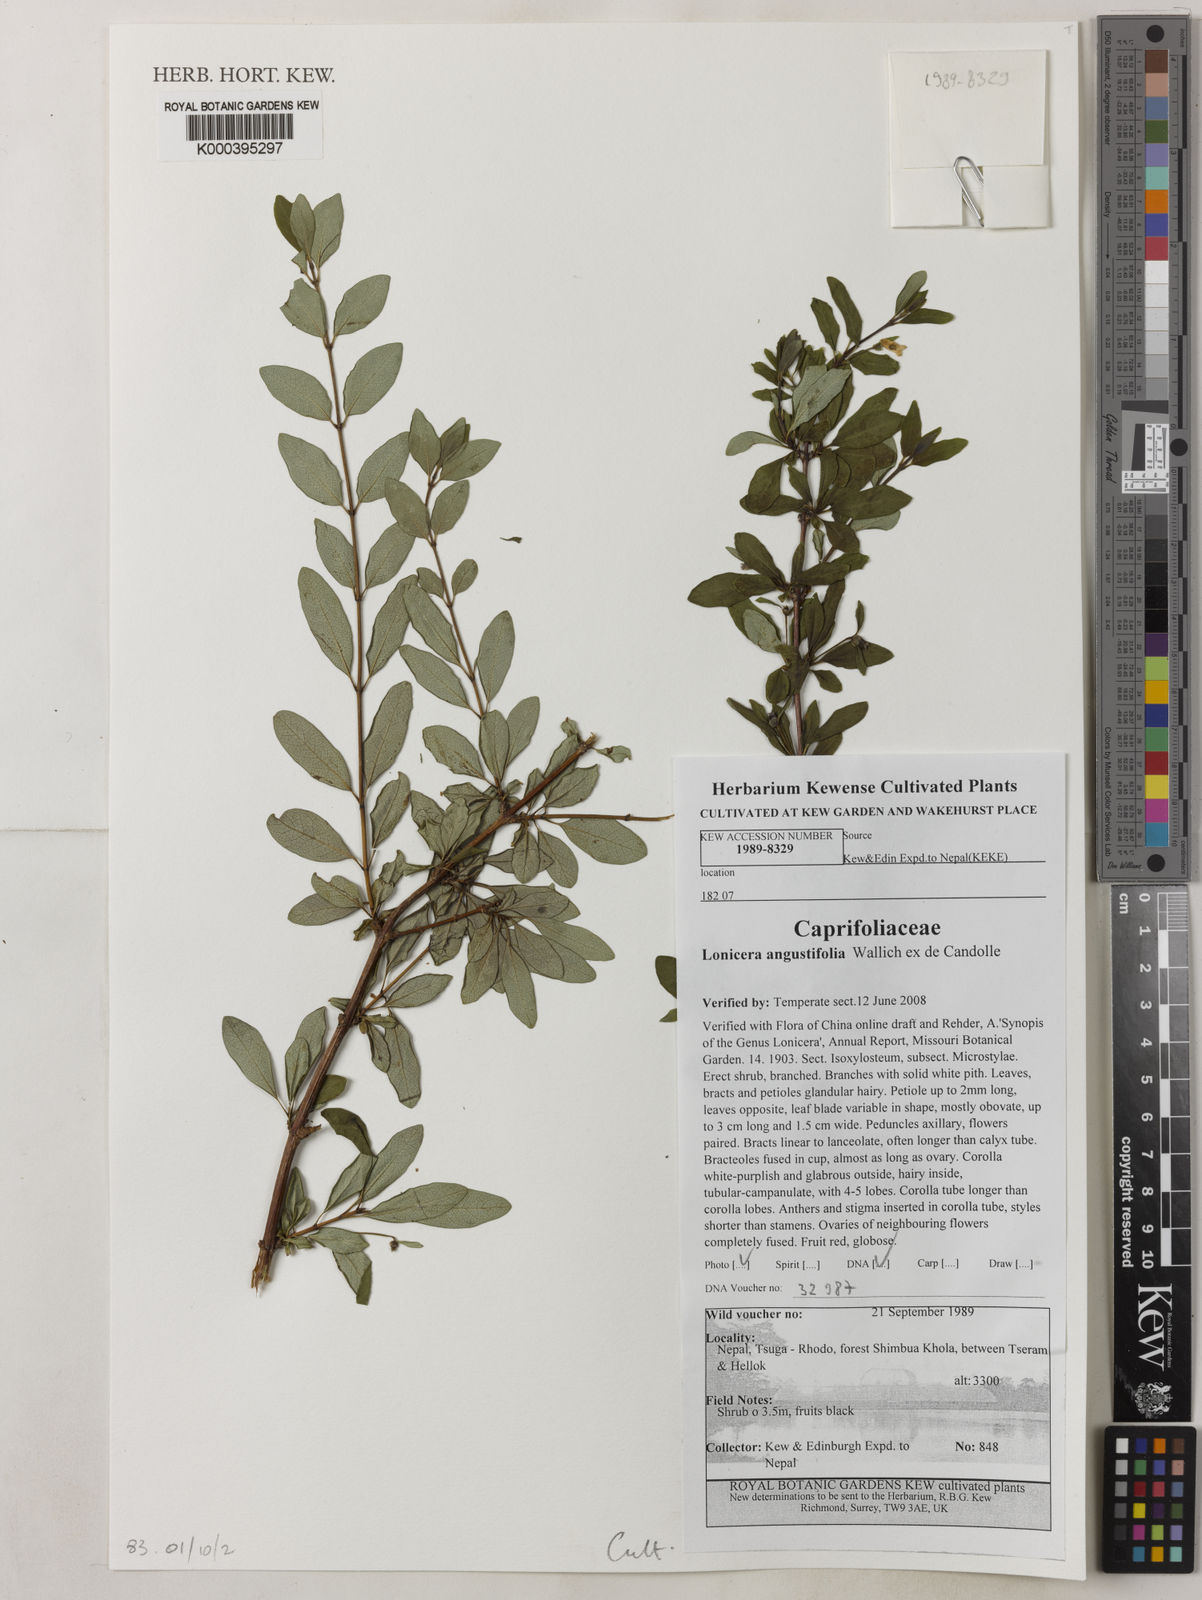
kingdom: Plantae
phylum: Tracheophyta
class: Magnoliopsida
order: Dipsacales
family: Caprifoliaceae
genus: Lonicera
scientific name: Lonicera
